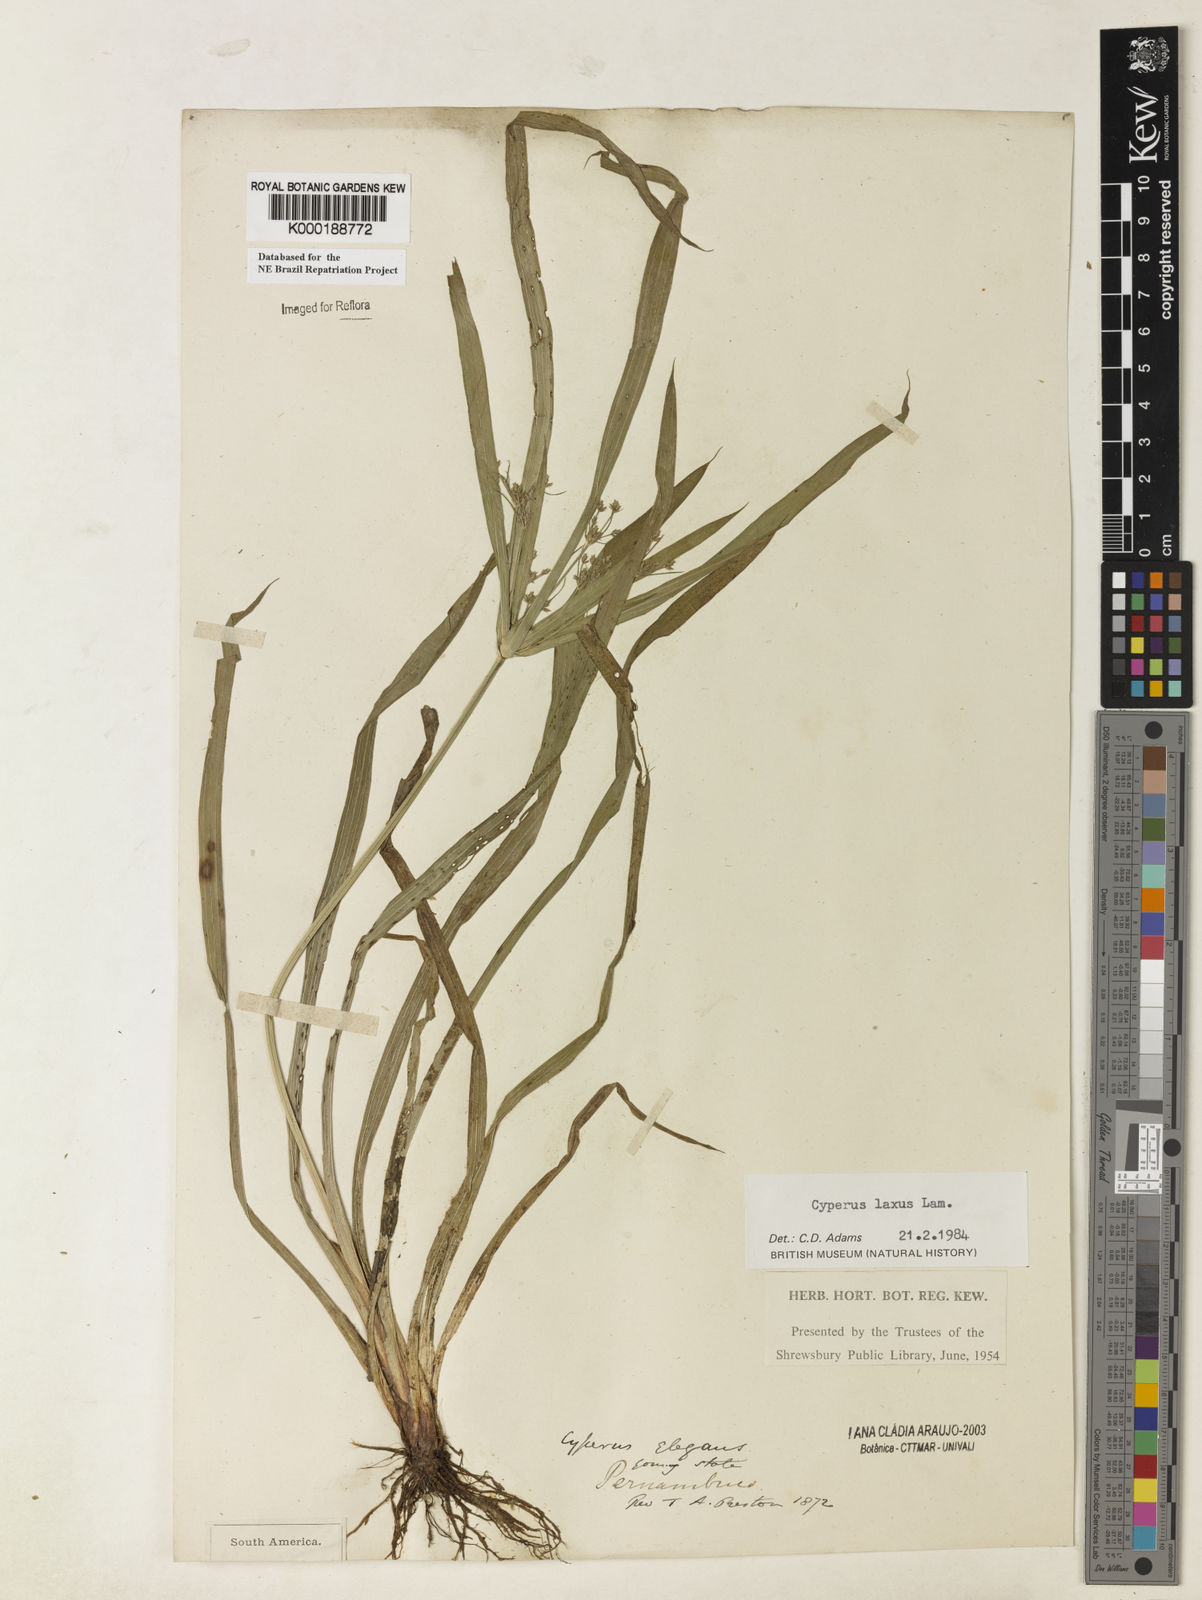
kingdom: Plantae
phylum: Tracheophyta
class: Liliopsida
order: Poales
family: Cyperaceae
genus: Cyperus
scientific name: Cyperus laxus
